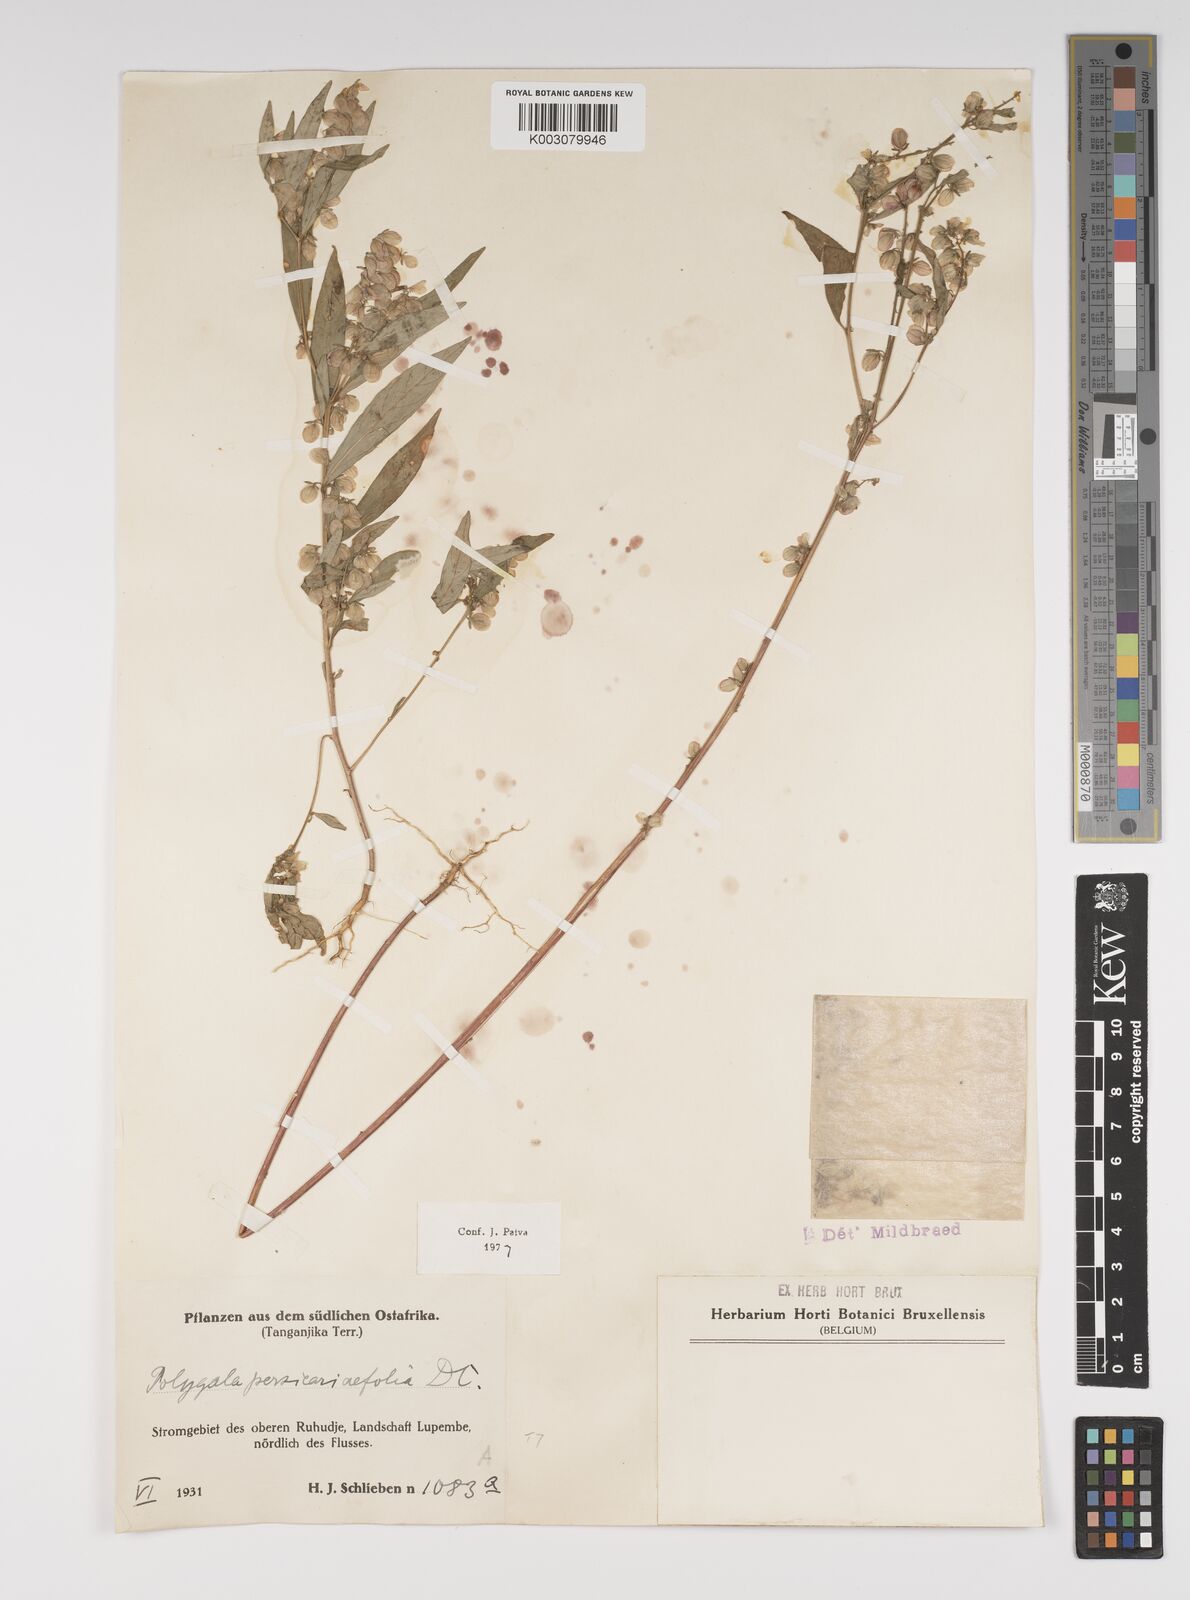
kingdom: Plantae
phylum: Tracheophyta
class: Magnoliopsida
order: Fabales
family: Polygalaceae
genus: Polygala
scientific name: Polygala persicariifolia
